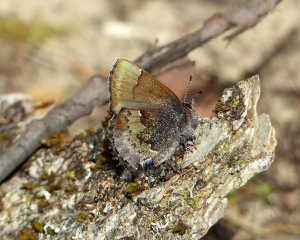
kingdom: Animalia
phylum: Arthropoda
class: Insecta
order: Lepidoptera
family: Lycaenidae
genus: Incisalia
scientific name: Incisalia henrici
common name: Henry's Elfin
